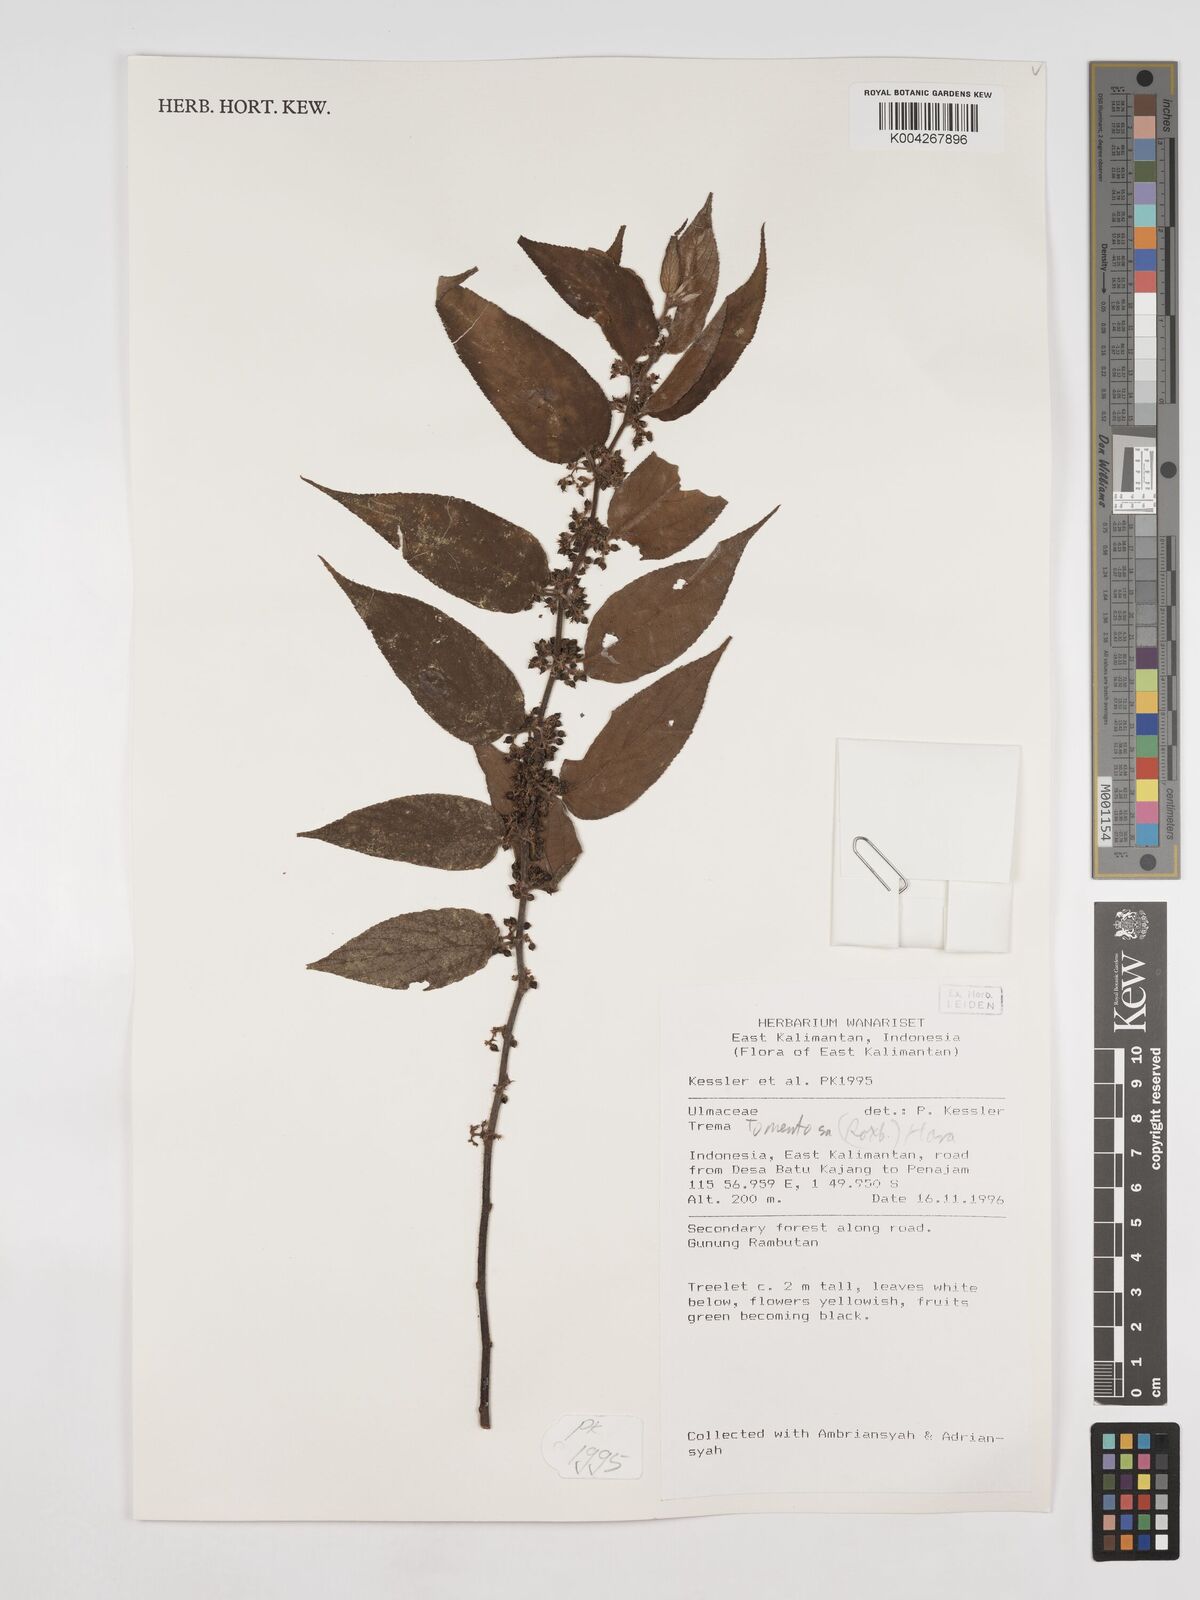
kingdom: Plantae
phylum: Tracheophyta
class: Magnoliopsida
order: Rosales
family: Cannabaceae
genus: Trema
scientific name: Trema tomentosum
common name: Peach-leaf-poisonbush
